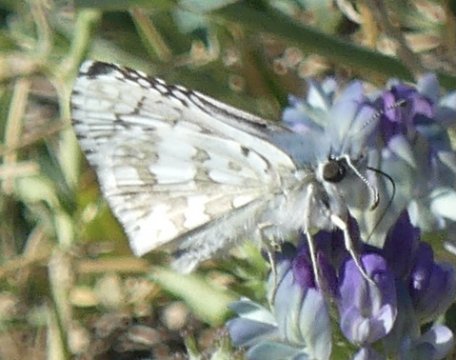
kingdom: Animalia
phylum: Arthropoda
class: Insecta
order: Lepidoptera
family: Hesperiidae
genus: Pyrgus
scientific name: Pyrgus communis
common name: Common Checkered-Skipper
